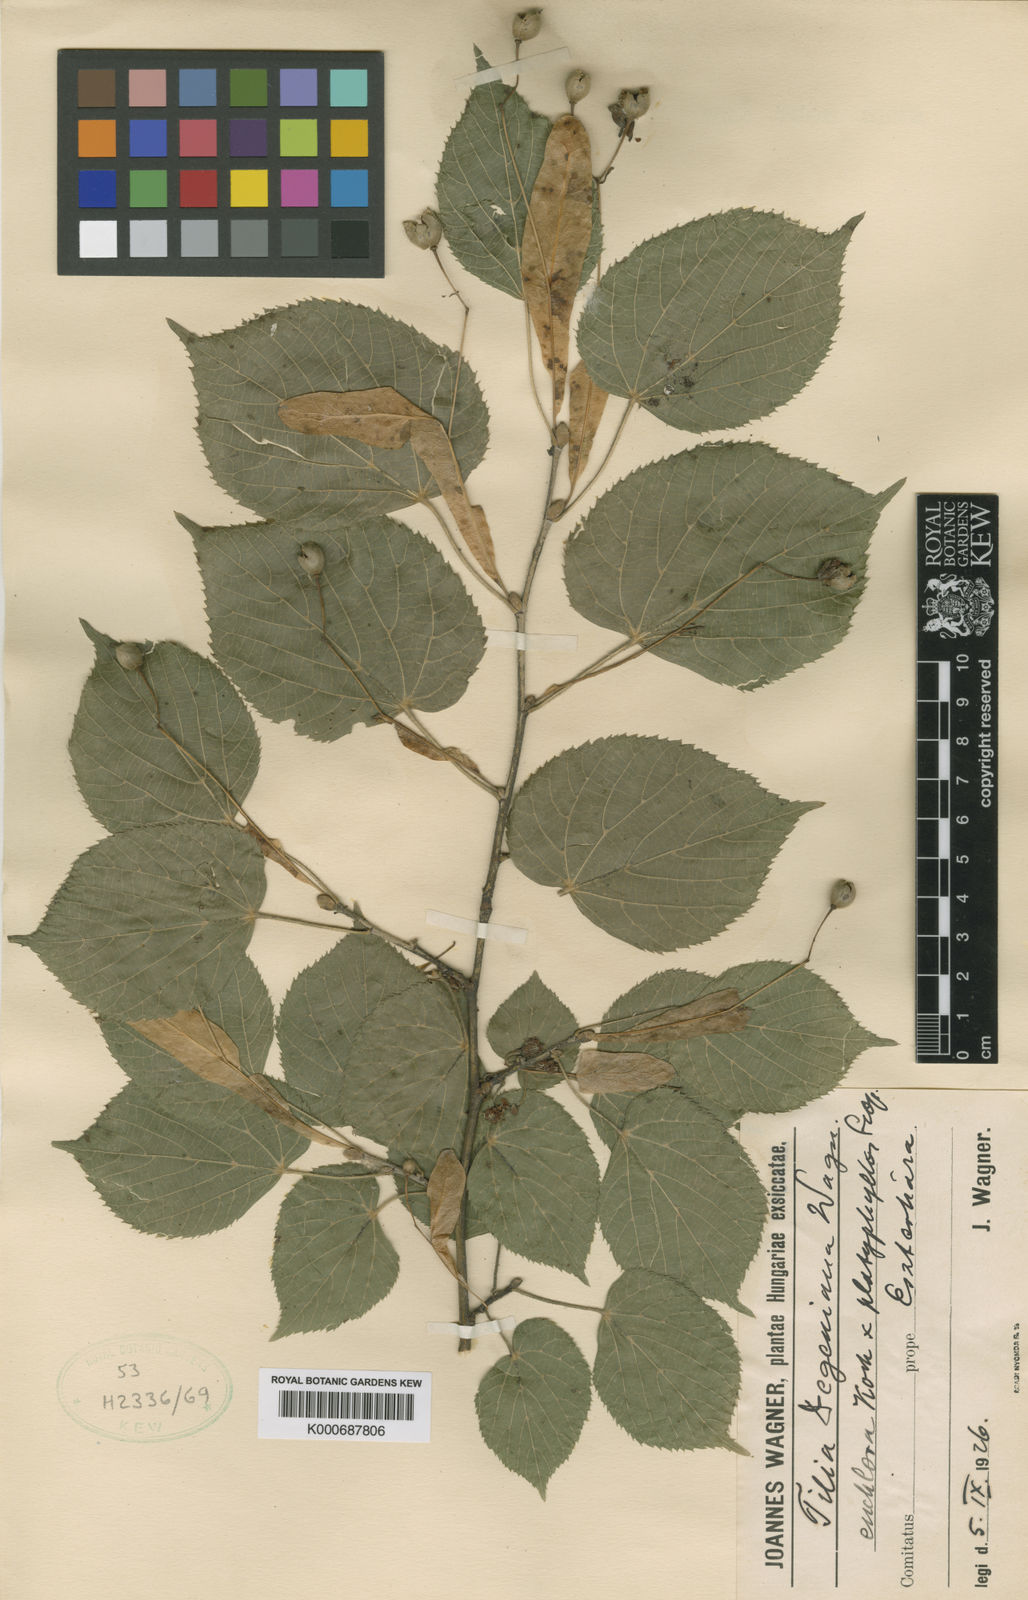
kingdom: Plantae
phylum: Tracheophyta
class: Magnoliopsida
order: Malvales
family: Malvaceae
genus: Tilia
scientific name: Tilia
